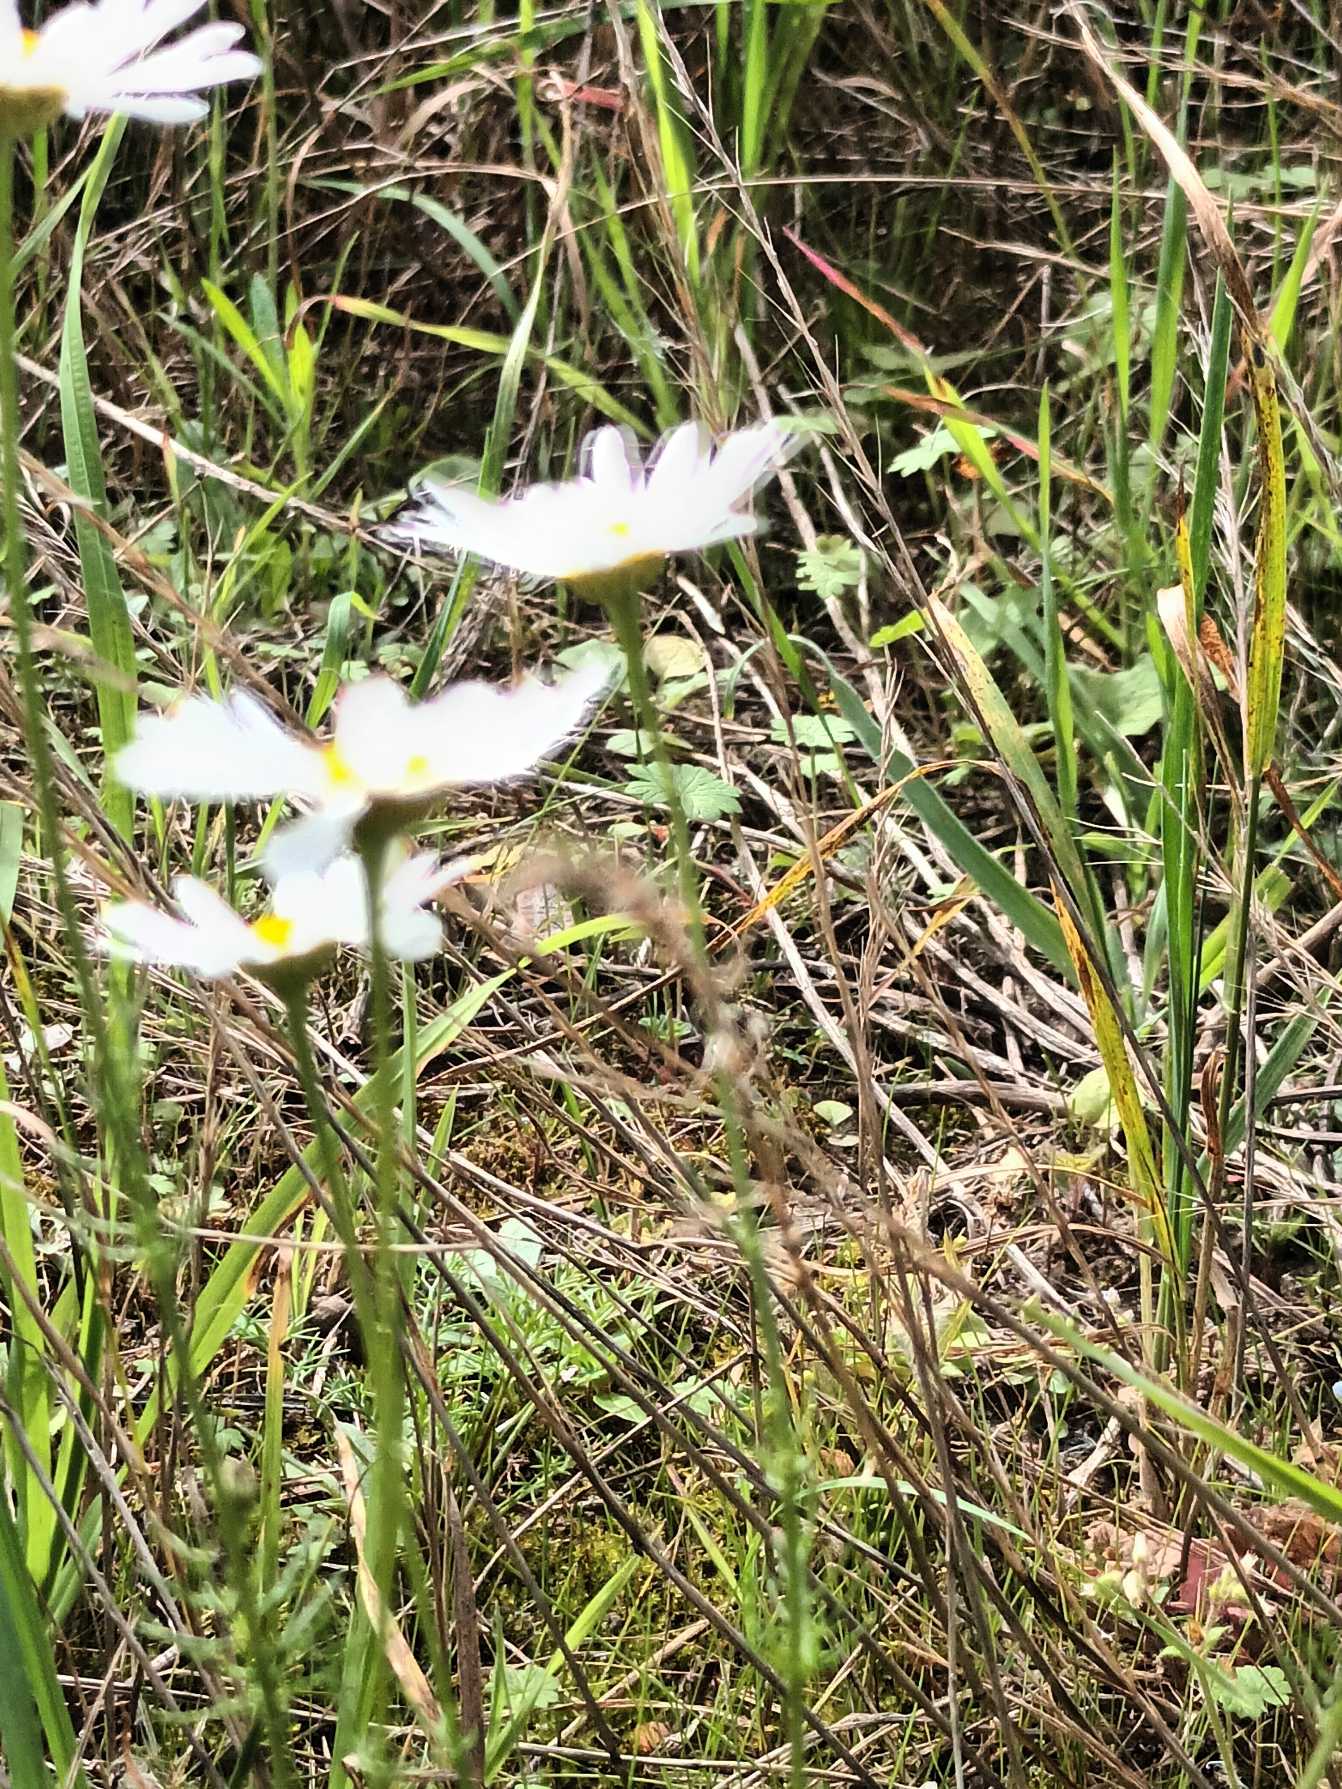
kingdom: Plantae
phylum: Tracheophyta
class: Magnoliopsida
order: Asterales
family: Asteraceae
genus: Tripleurospermum
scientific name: Tripleurospermum inodorum
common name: Lugtløs kamille
